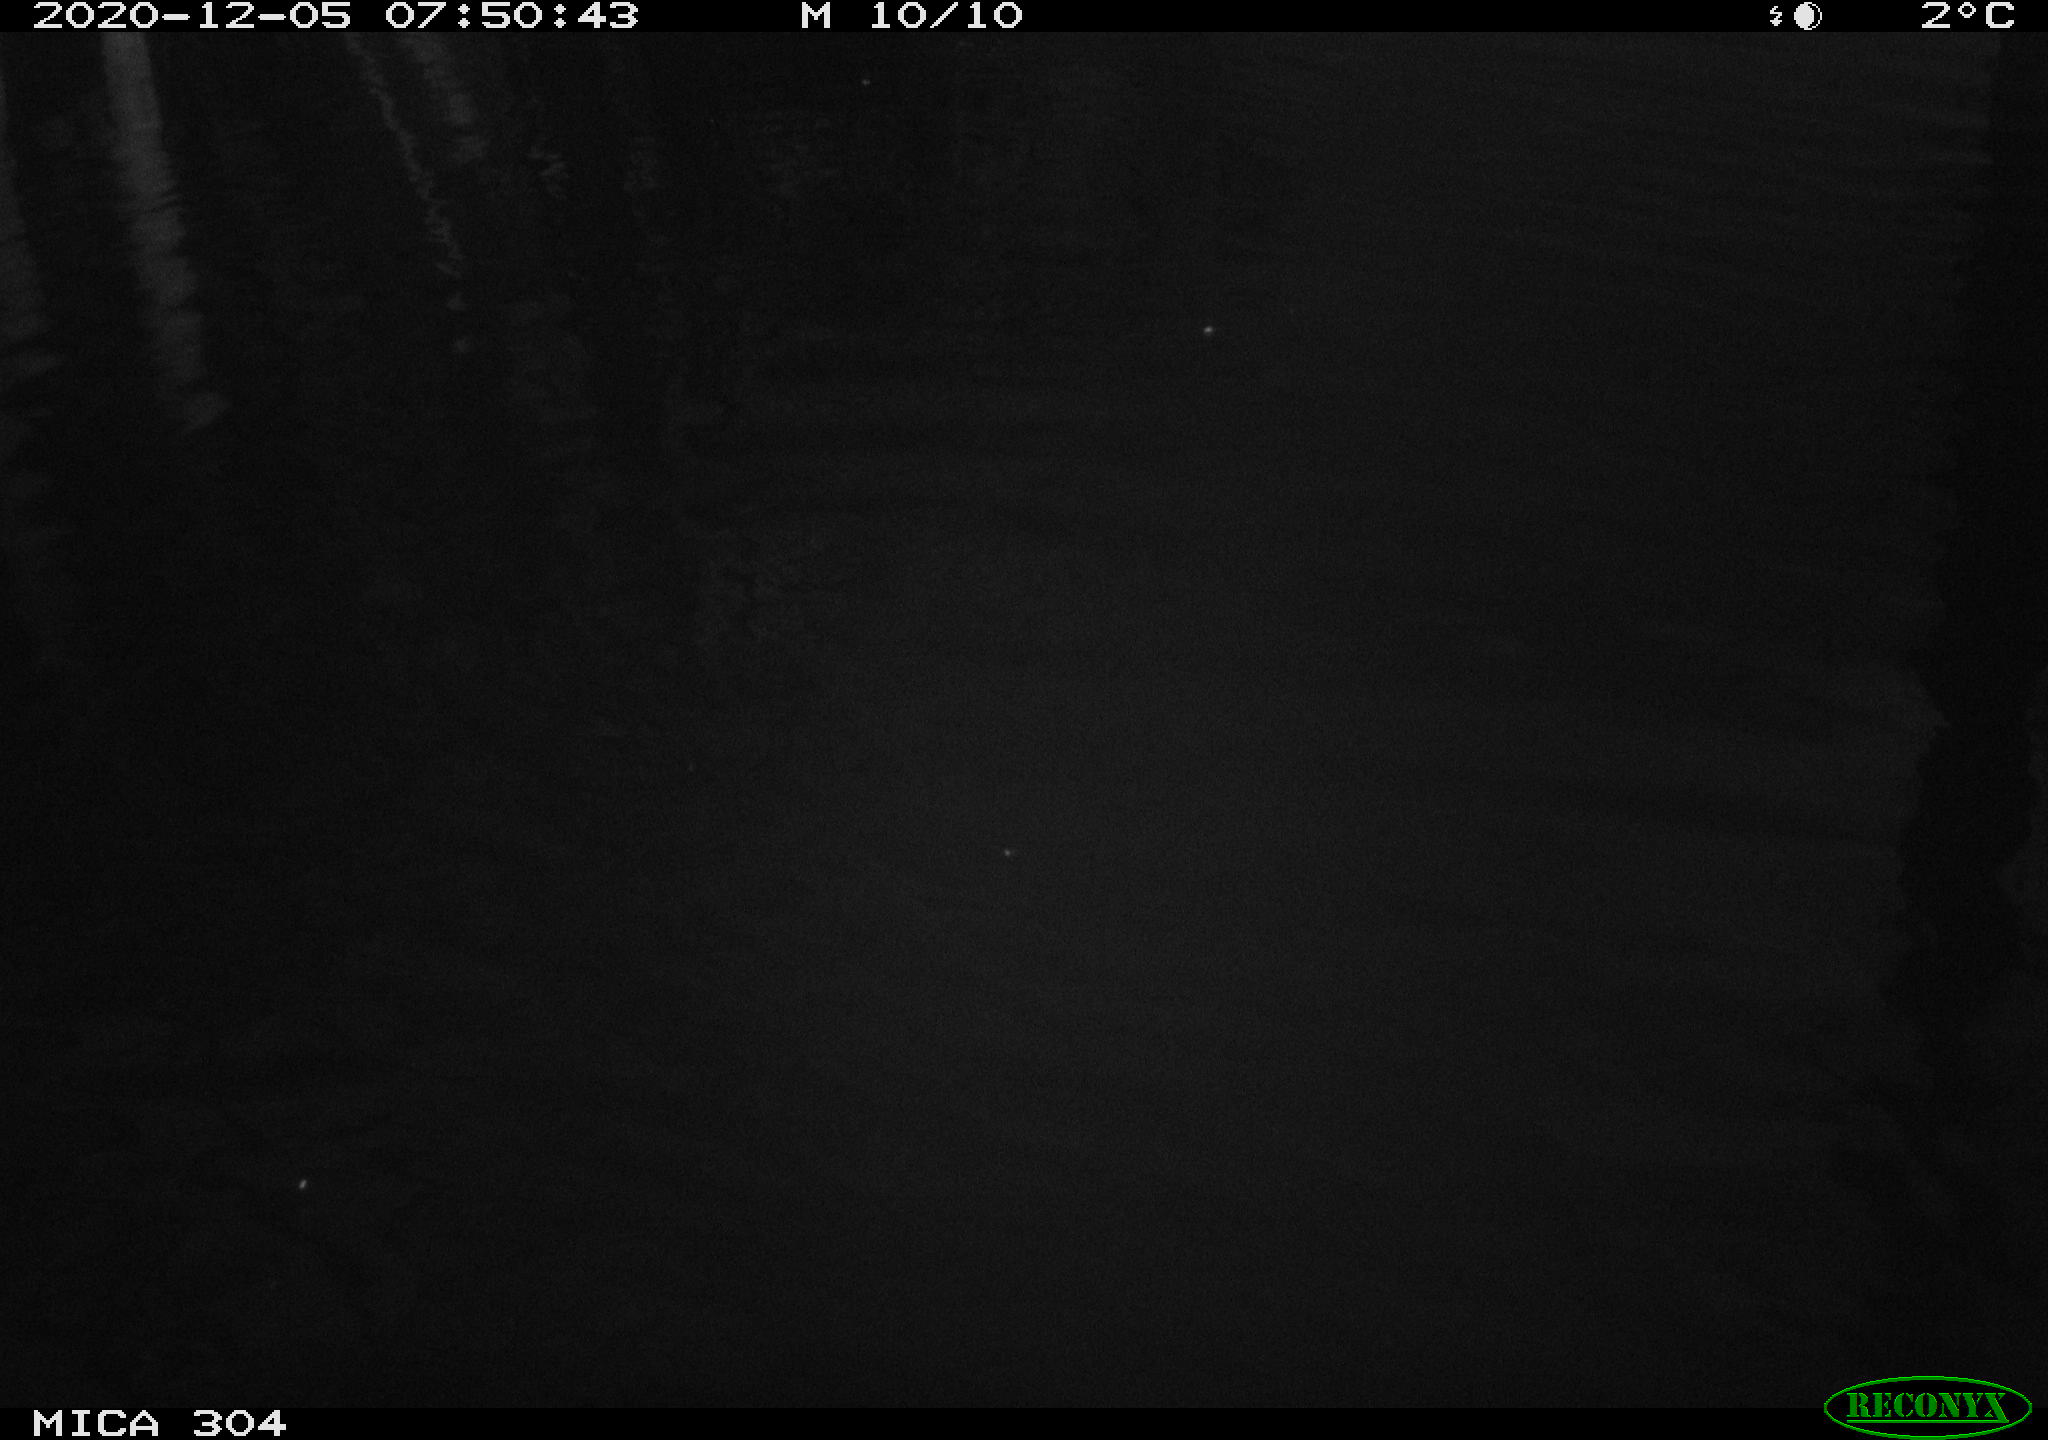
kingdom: Animalia
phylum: Chordata
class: Aves
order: Gruiformes
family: Rallidae
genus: Gallinula
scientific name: Gallinula chloropus
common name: Common moorhen
